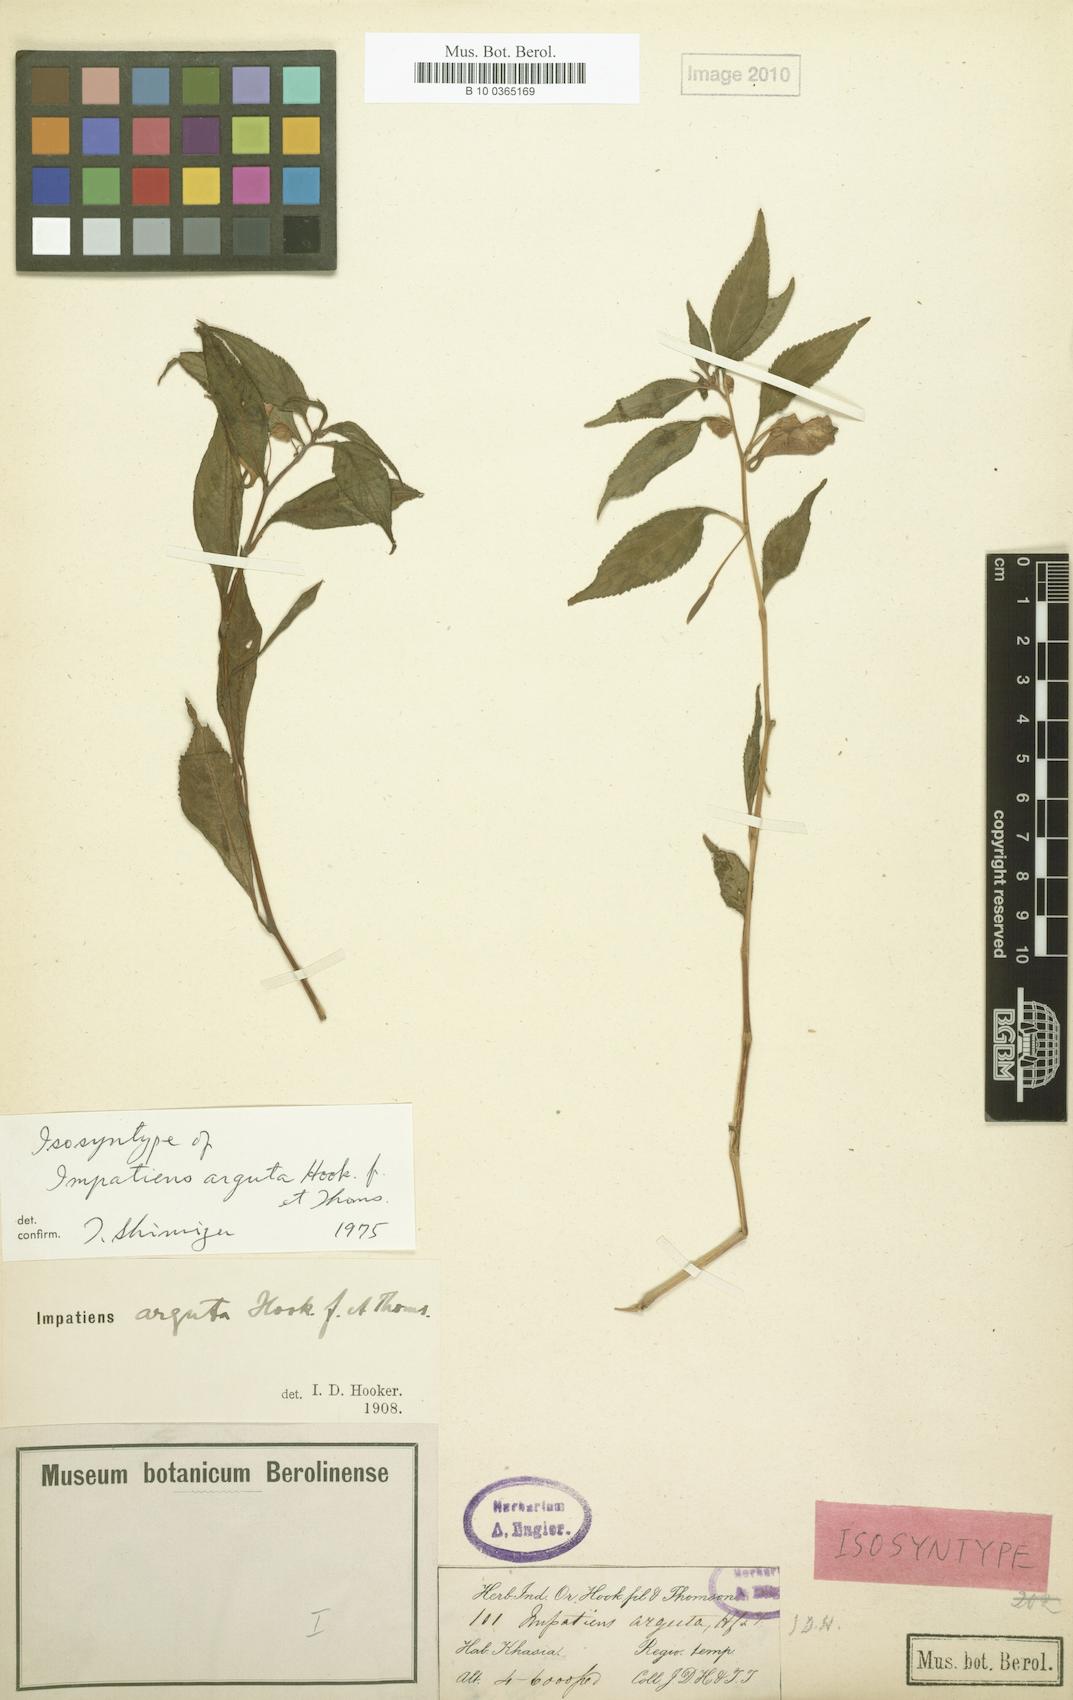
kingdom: Plantae
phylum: Tracheophyta
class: Magnoliopsida
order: Ericales
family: Balsaminaceae
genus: Impatiens
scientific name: Impatiens arguta
